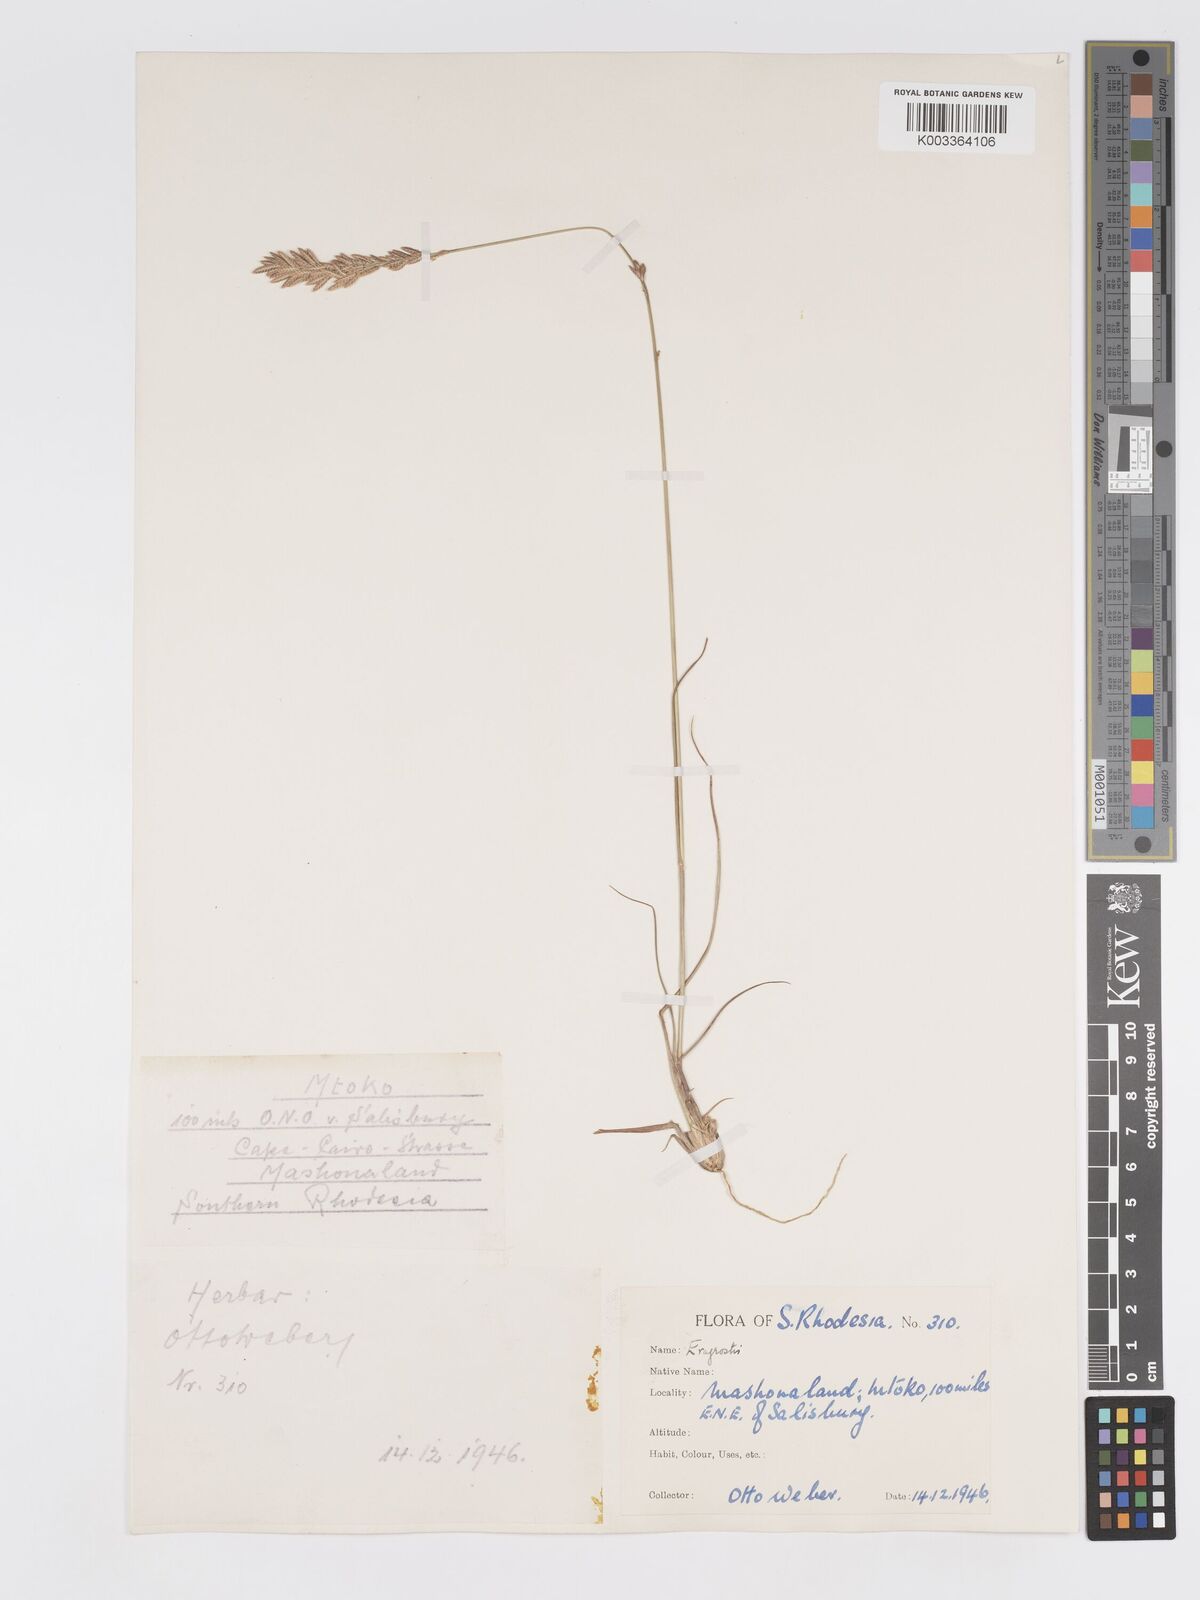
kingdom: Plantae
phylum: Tracheophyta
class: Liliopsida
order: Poales
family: Poaceae
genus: Eragrostis
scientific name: Eragrostis chapelieri
